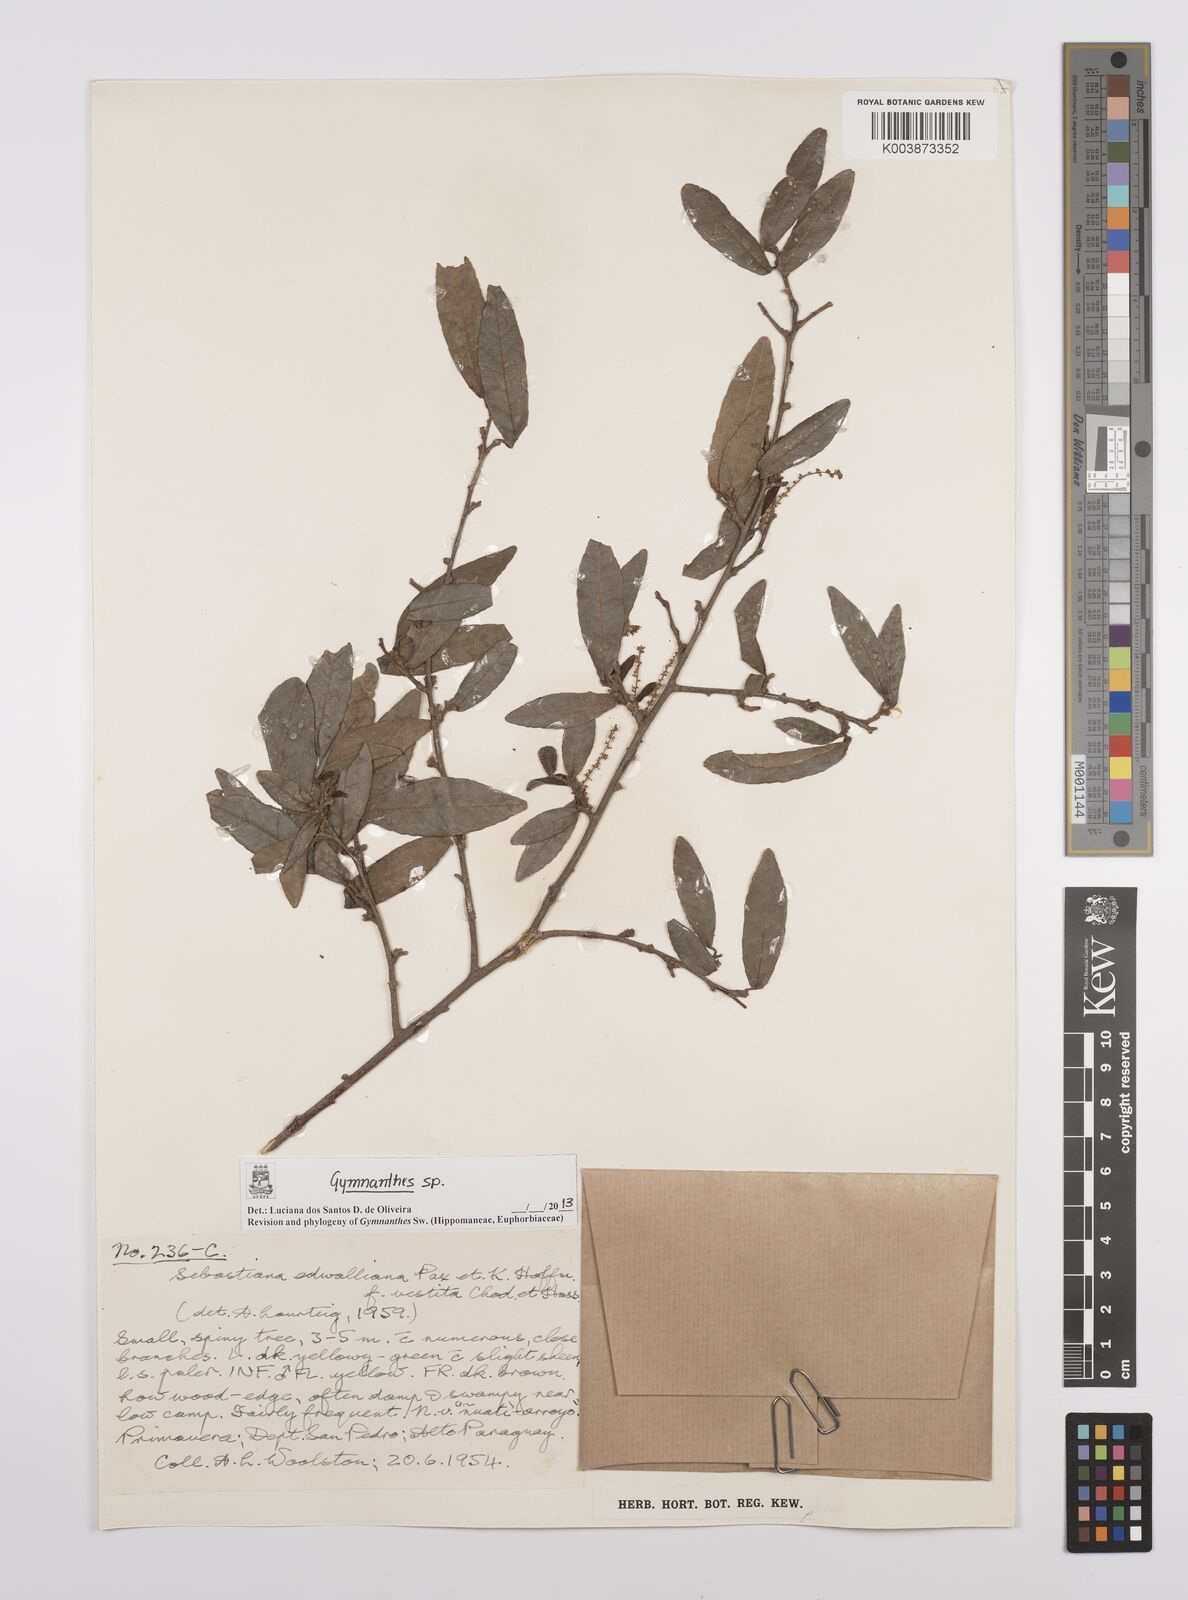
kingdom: Plantae
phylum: Tracheophyta
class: Magnoliopsida
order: Malpighiales
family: Euphorbiaceae
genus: Gymnanthes
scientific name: Gymnanthes
